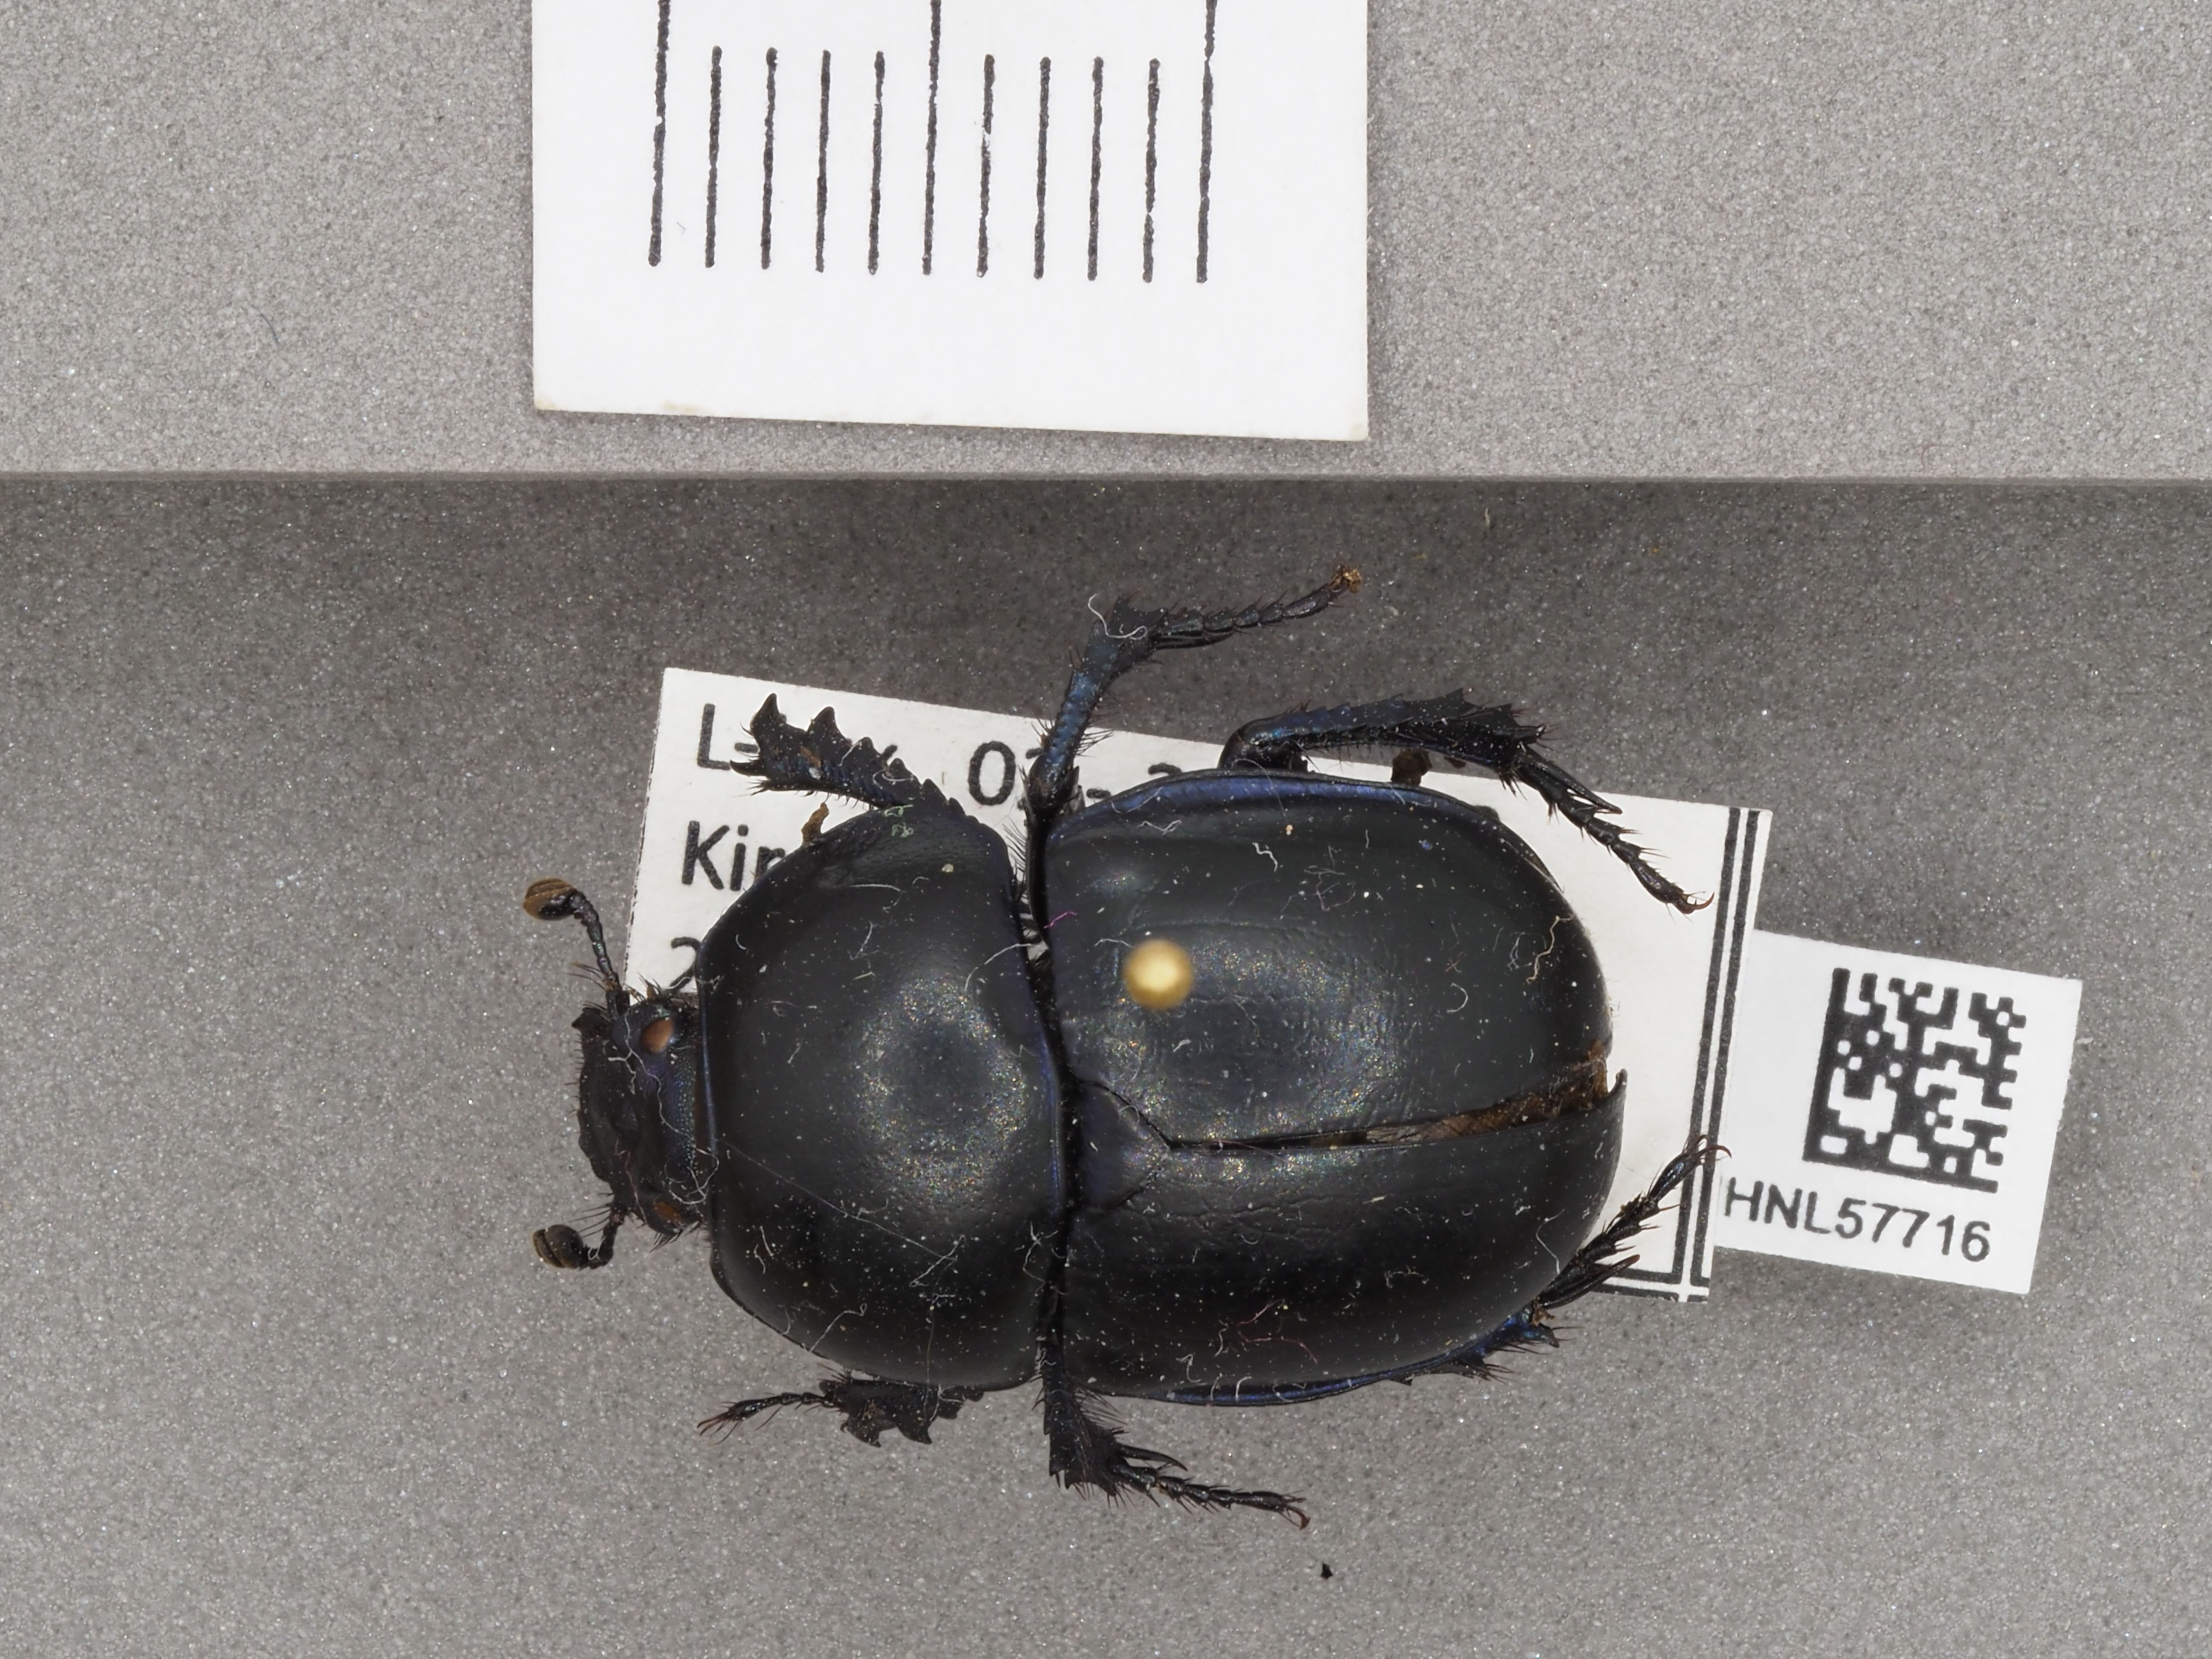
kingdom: Animalia
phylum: Arthropoda
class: Insecta
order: Coleoptera
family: Geotrupidae
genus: Trypocopris
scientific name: Trypocopris vernalis
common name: Spring dumbledor
